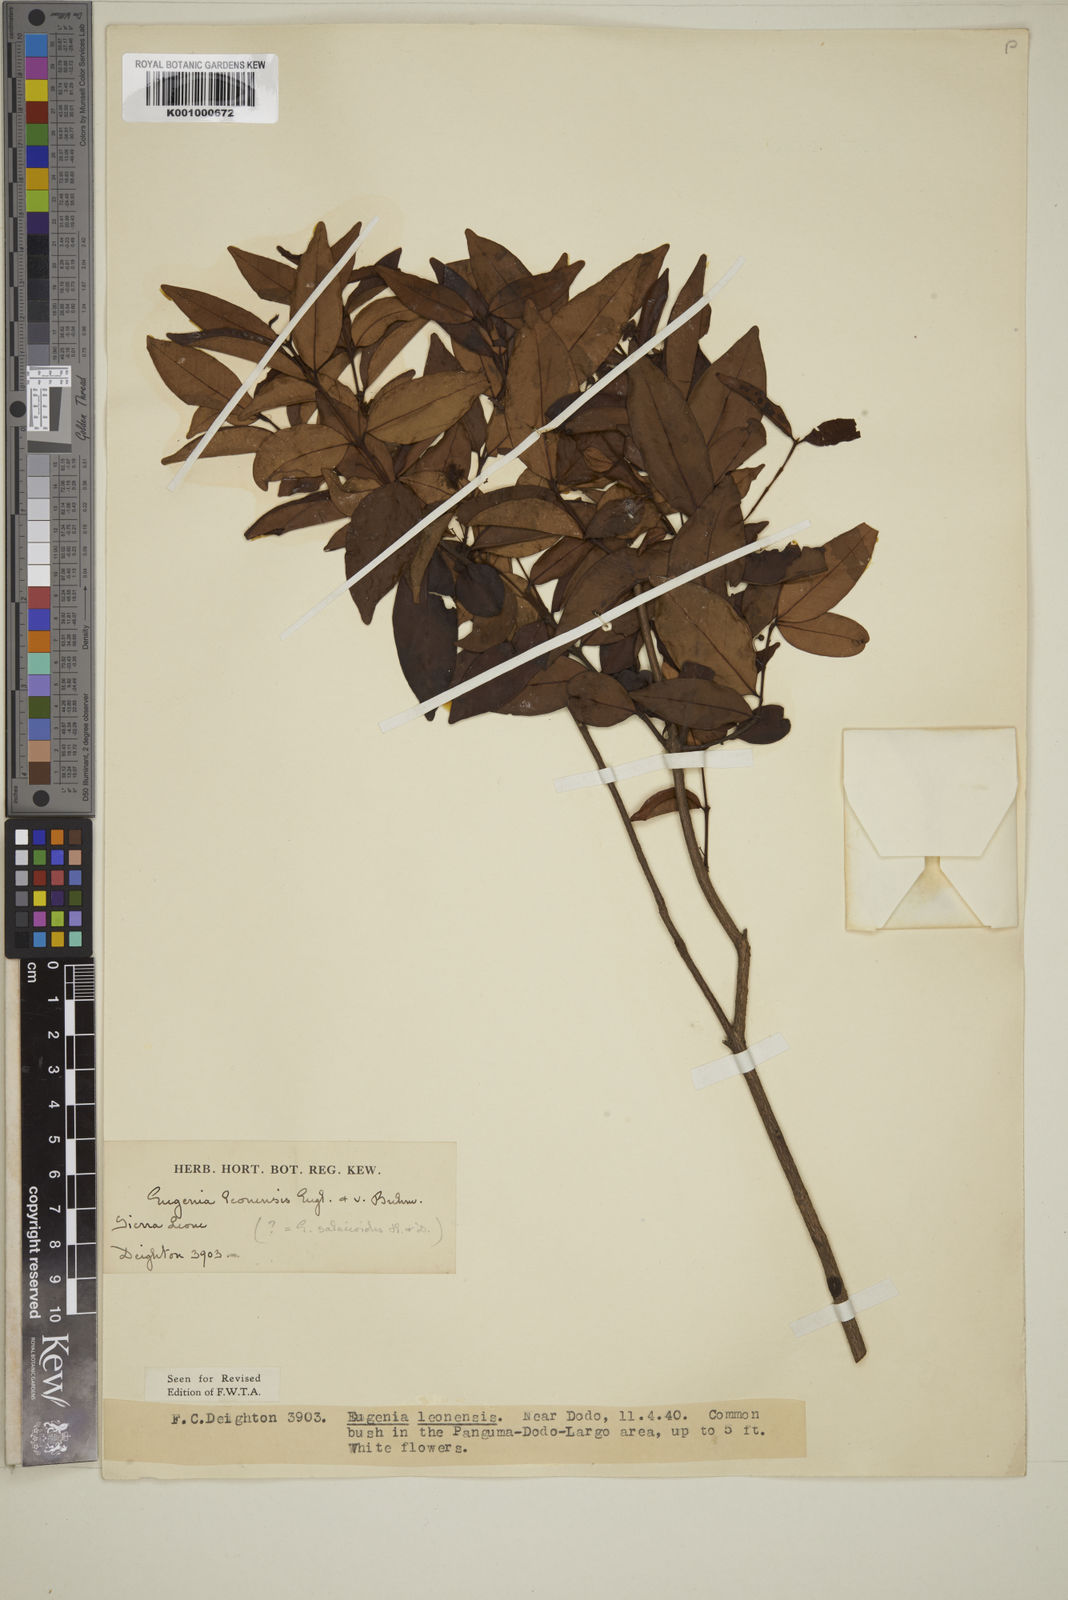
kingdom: Plantae
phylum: Tracheophyta
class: Magnoliopsida
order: Myrtales
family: Myrtaceae
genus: Eugenia
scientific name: Eugenia leonensis
